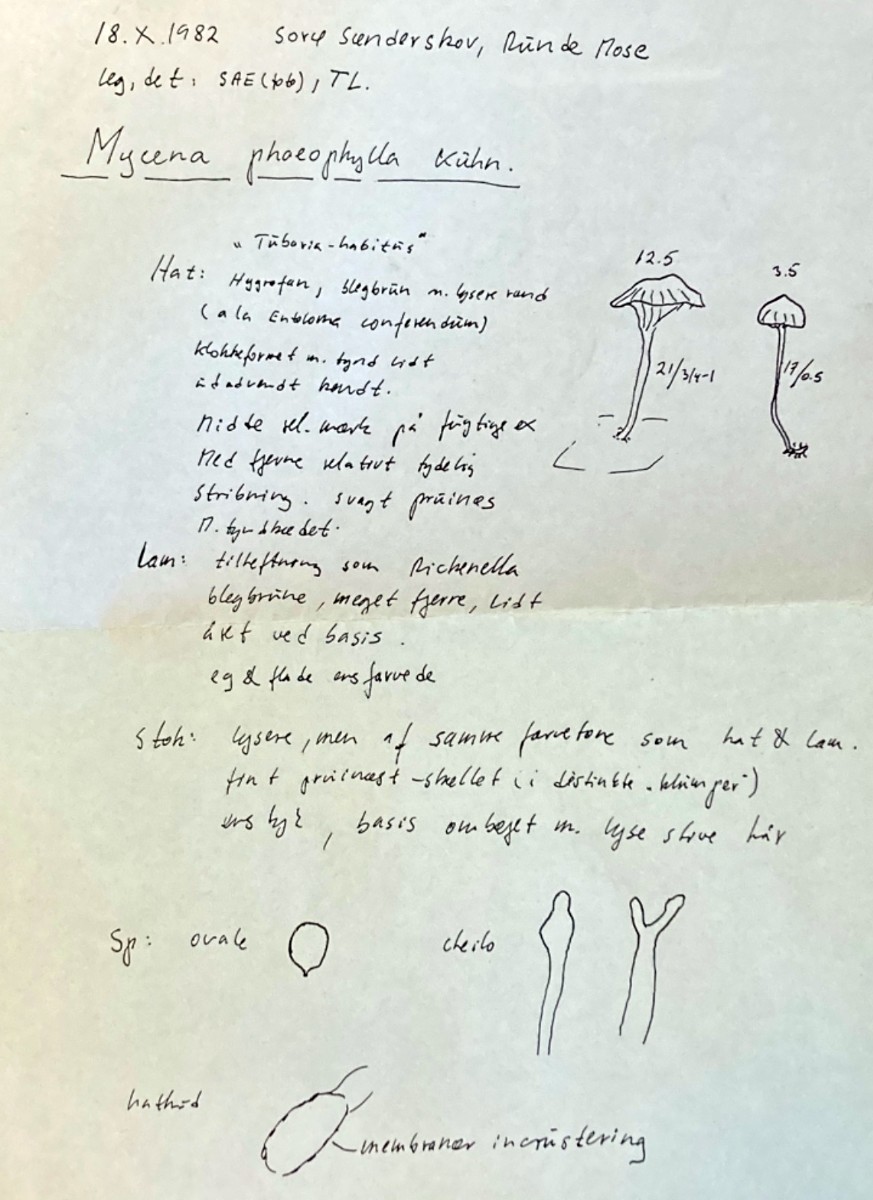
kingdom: Fungi
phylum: Basidiomycota
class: Agaricomycetes
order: Agaricales
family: Porotheleaceae
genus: Phloeomana
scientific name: Phloeomana clavata
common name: brunbladet huesvamp
